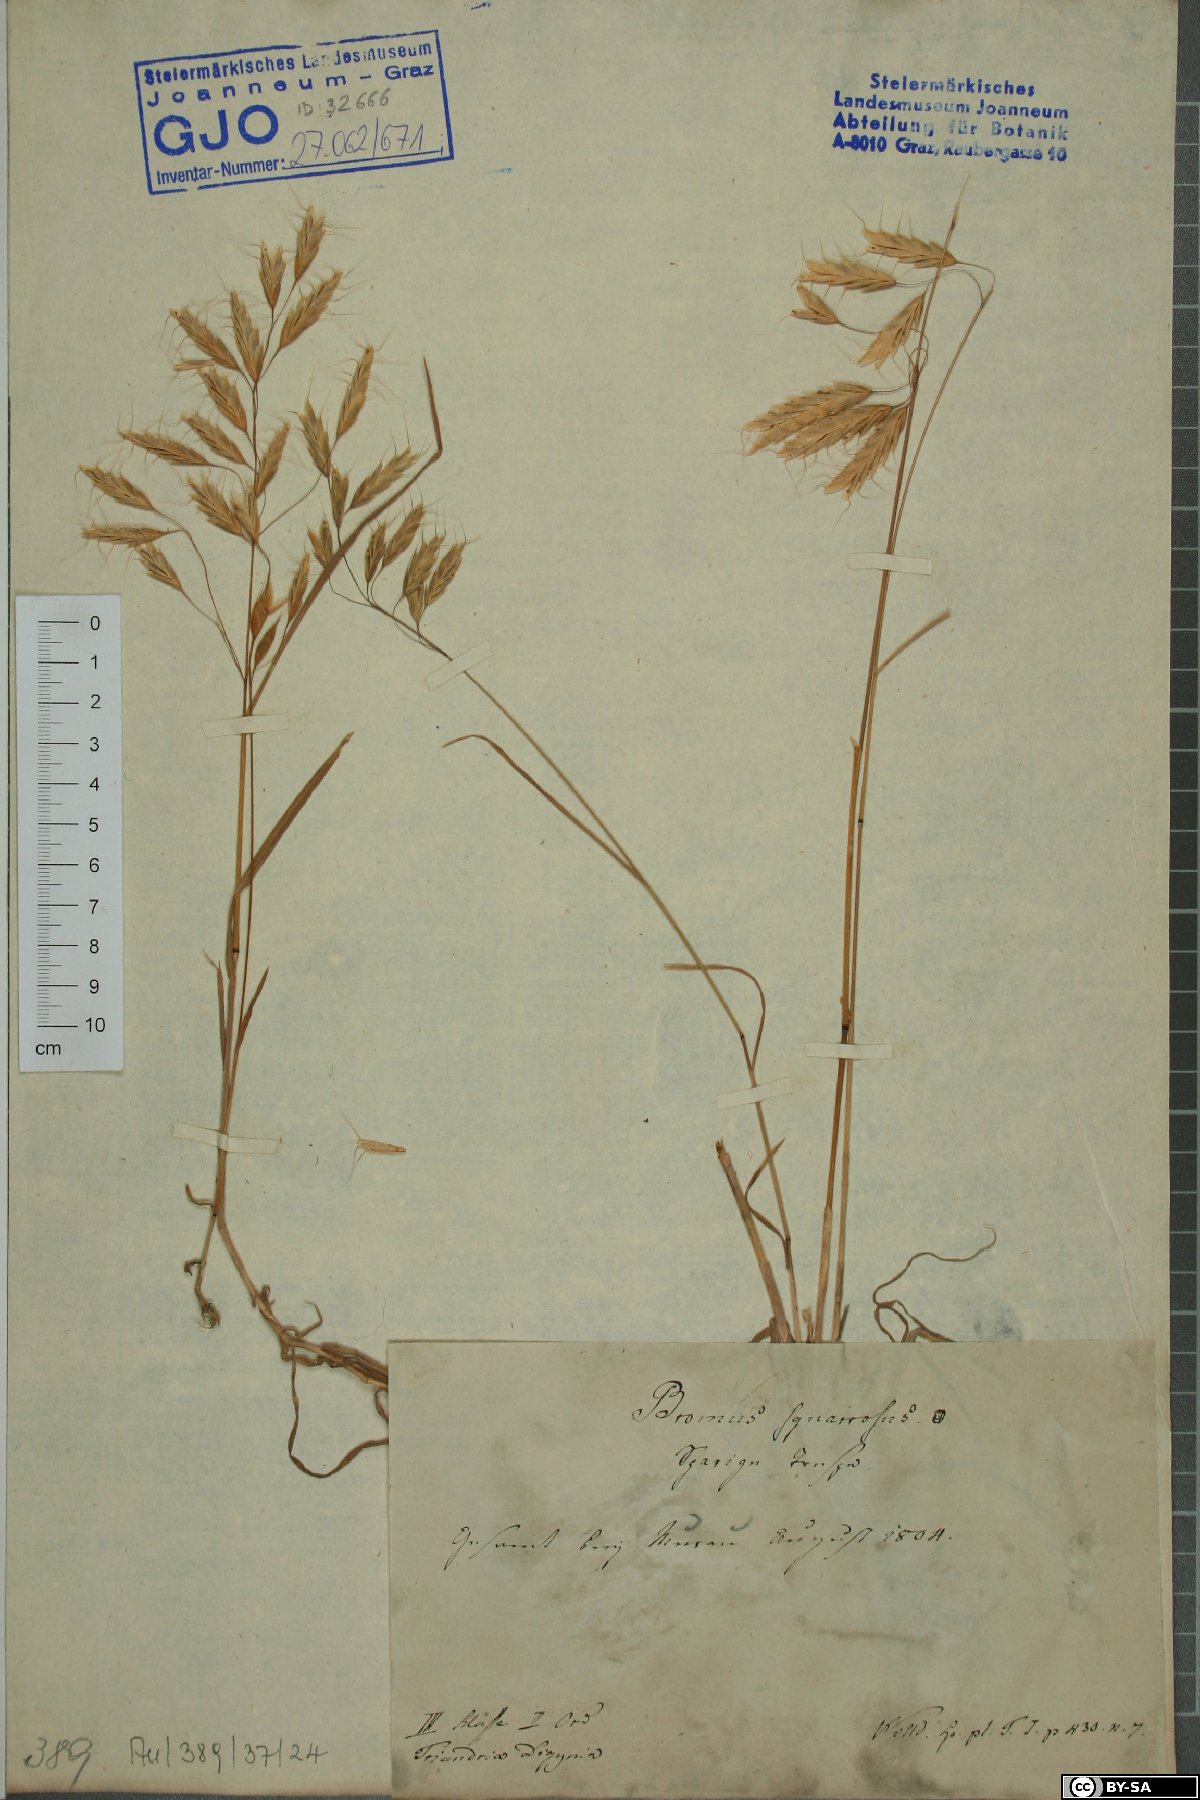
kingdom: Plantae
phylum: Tracheophyta
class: Liliopsida
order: Poales
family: Poaceae
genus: Bromus
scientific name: Bromus squarrosus
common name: Corn brome
